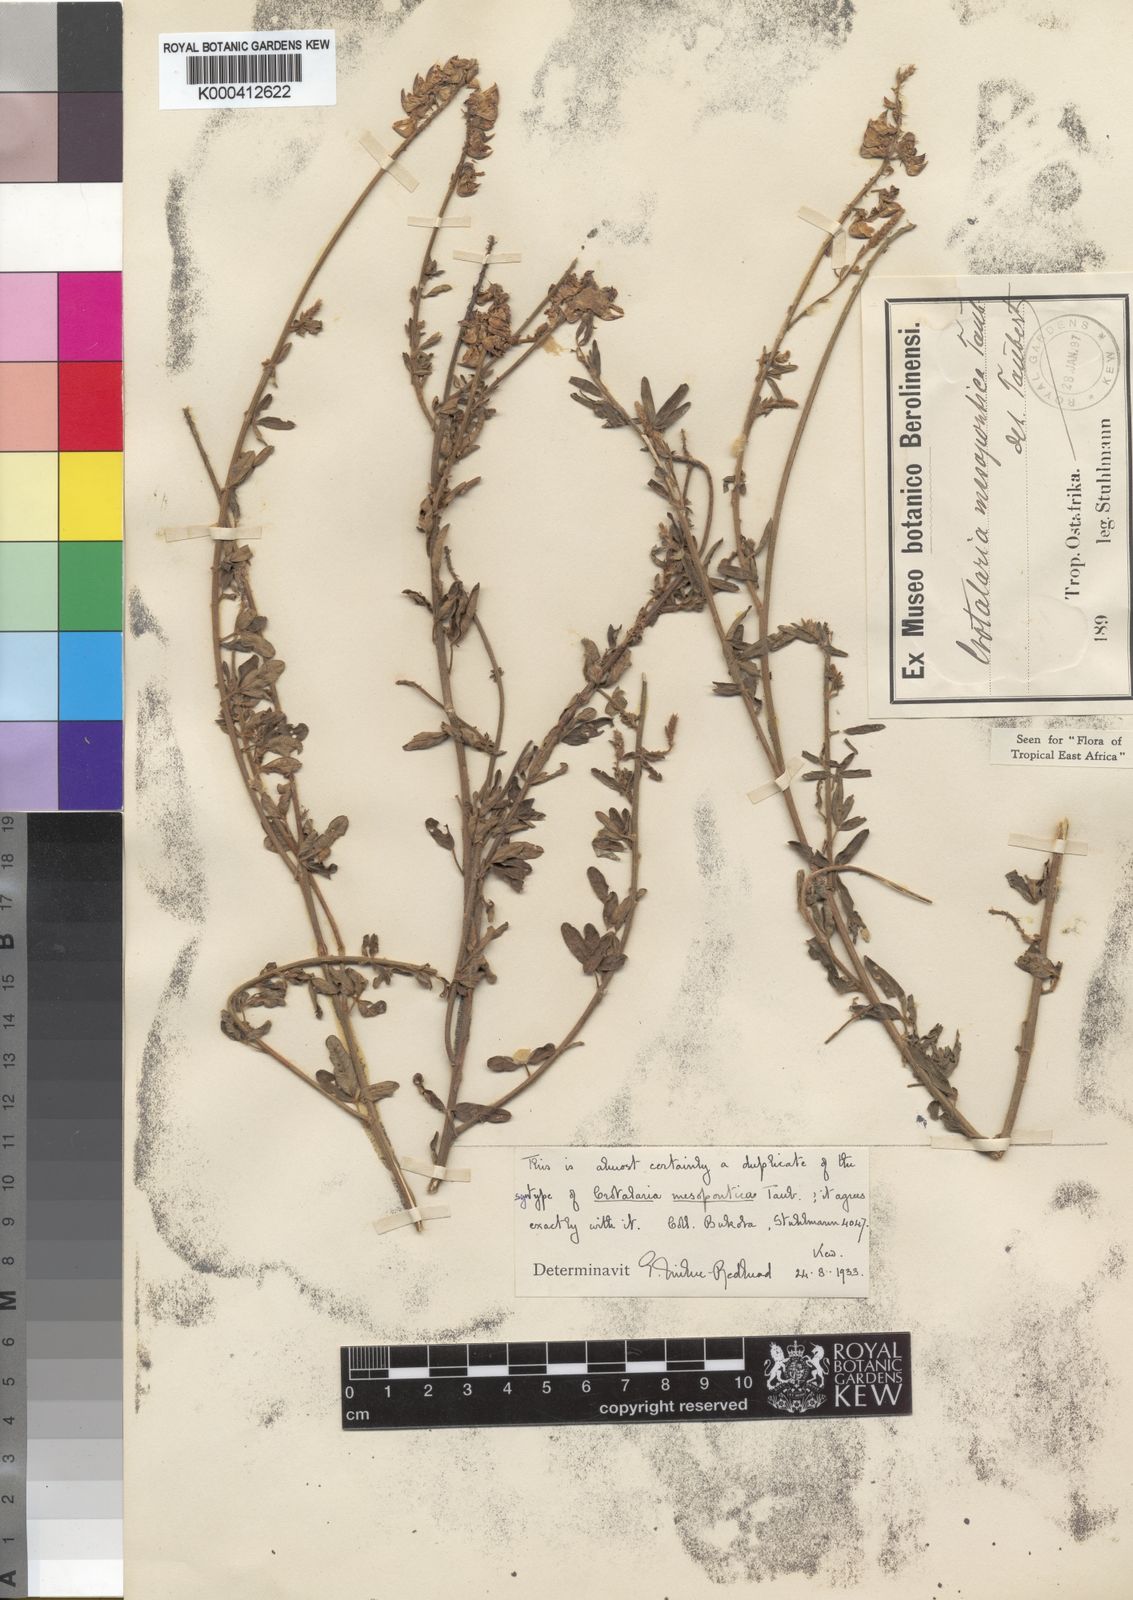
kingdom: Plantae
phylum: Tracheophyta
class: Magnoliopsida
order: Fabales
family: Fabaceae
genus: Crotalaria
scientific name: Crotalaria mesopontica
